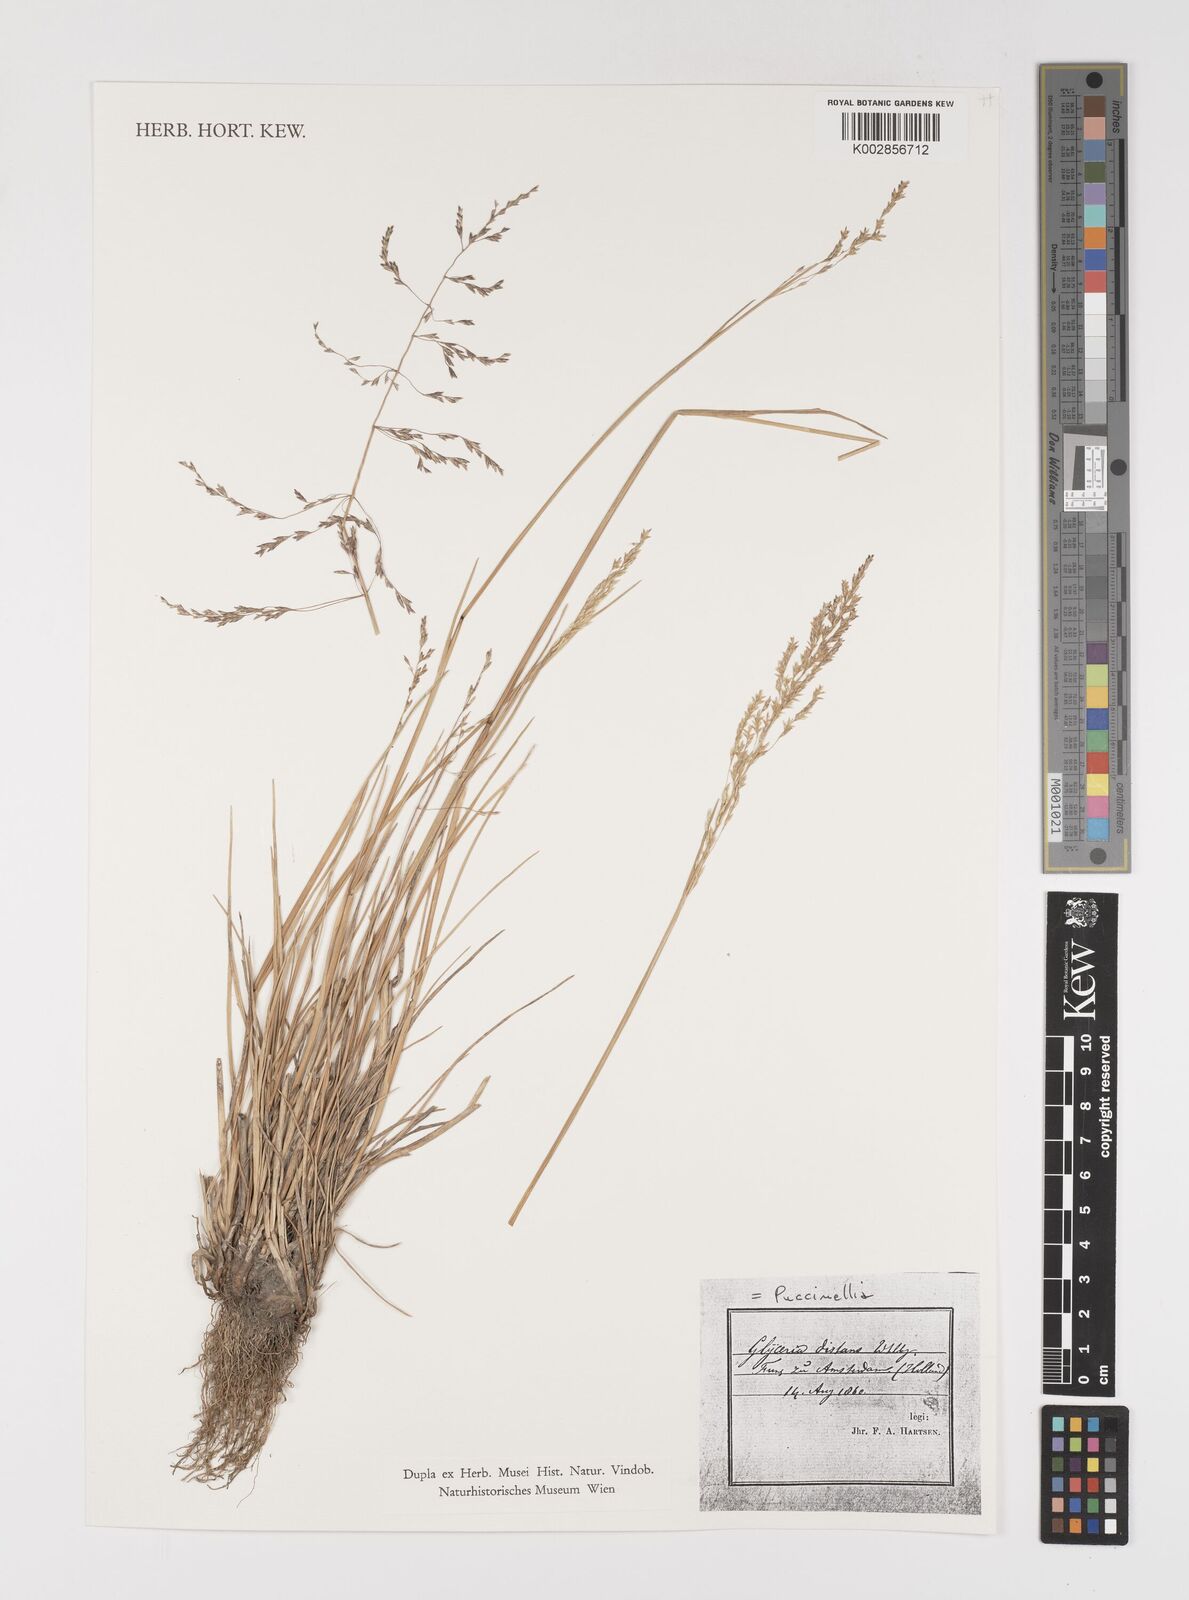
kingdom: Plantae
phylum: Tracheophyta
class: Liliopsida
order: Poales
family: Poaceae
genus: Puccinellia
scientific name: Puccinellia
